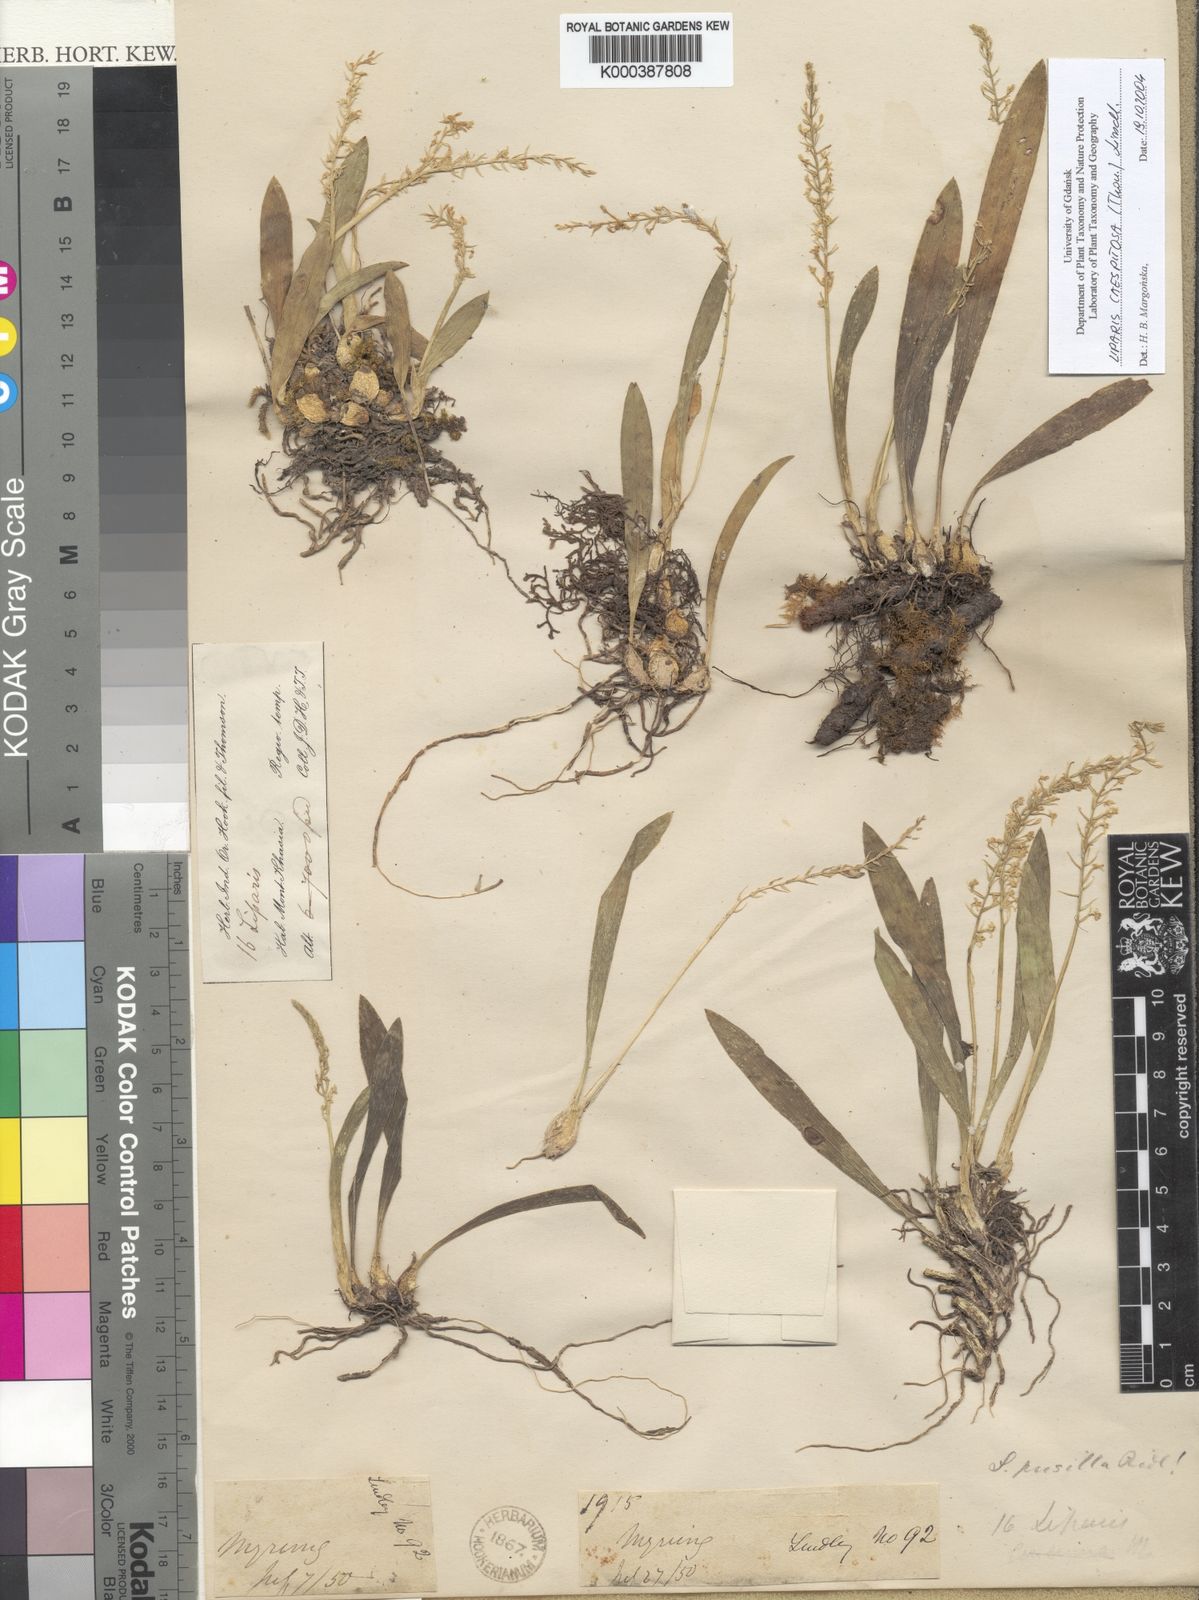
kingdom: Plantae
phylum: Tracheophyta
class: Liliopsida
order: Asparagales
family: Orchidaceae
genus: Liparis
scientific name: Liparis
